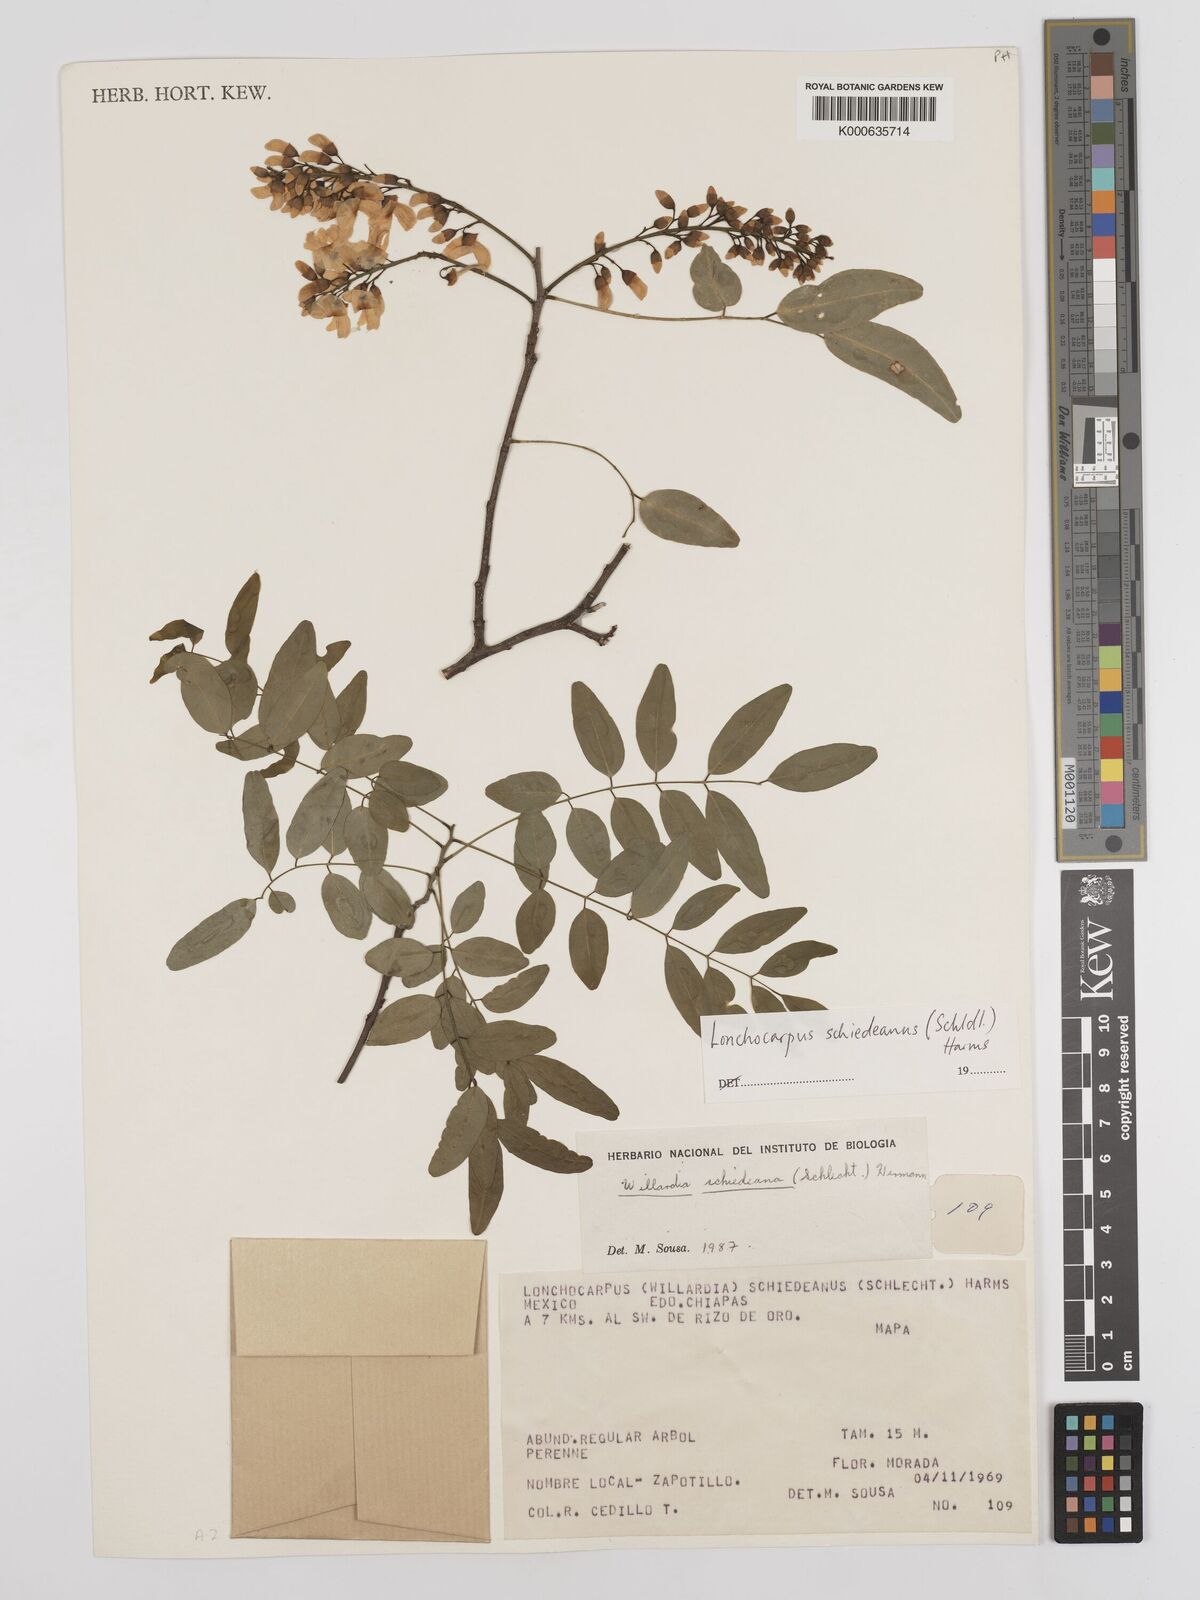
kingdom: Plantae
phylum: Tracheophyta
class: Magnoliopsida
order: Fabales
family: Fabaceae
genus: Lonchocarpus
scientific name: Lonchocarpus schiedeanus
